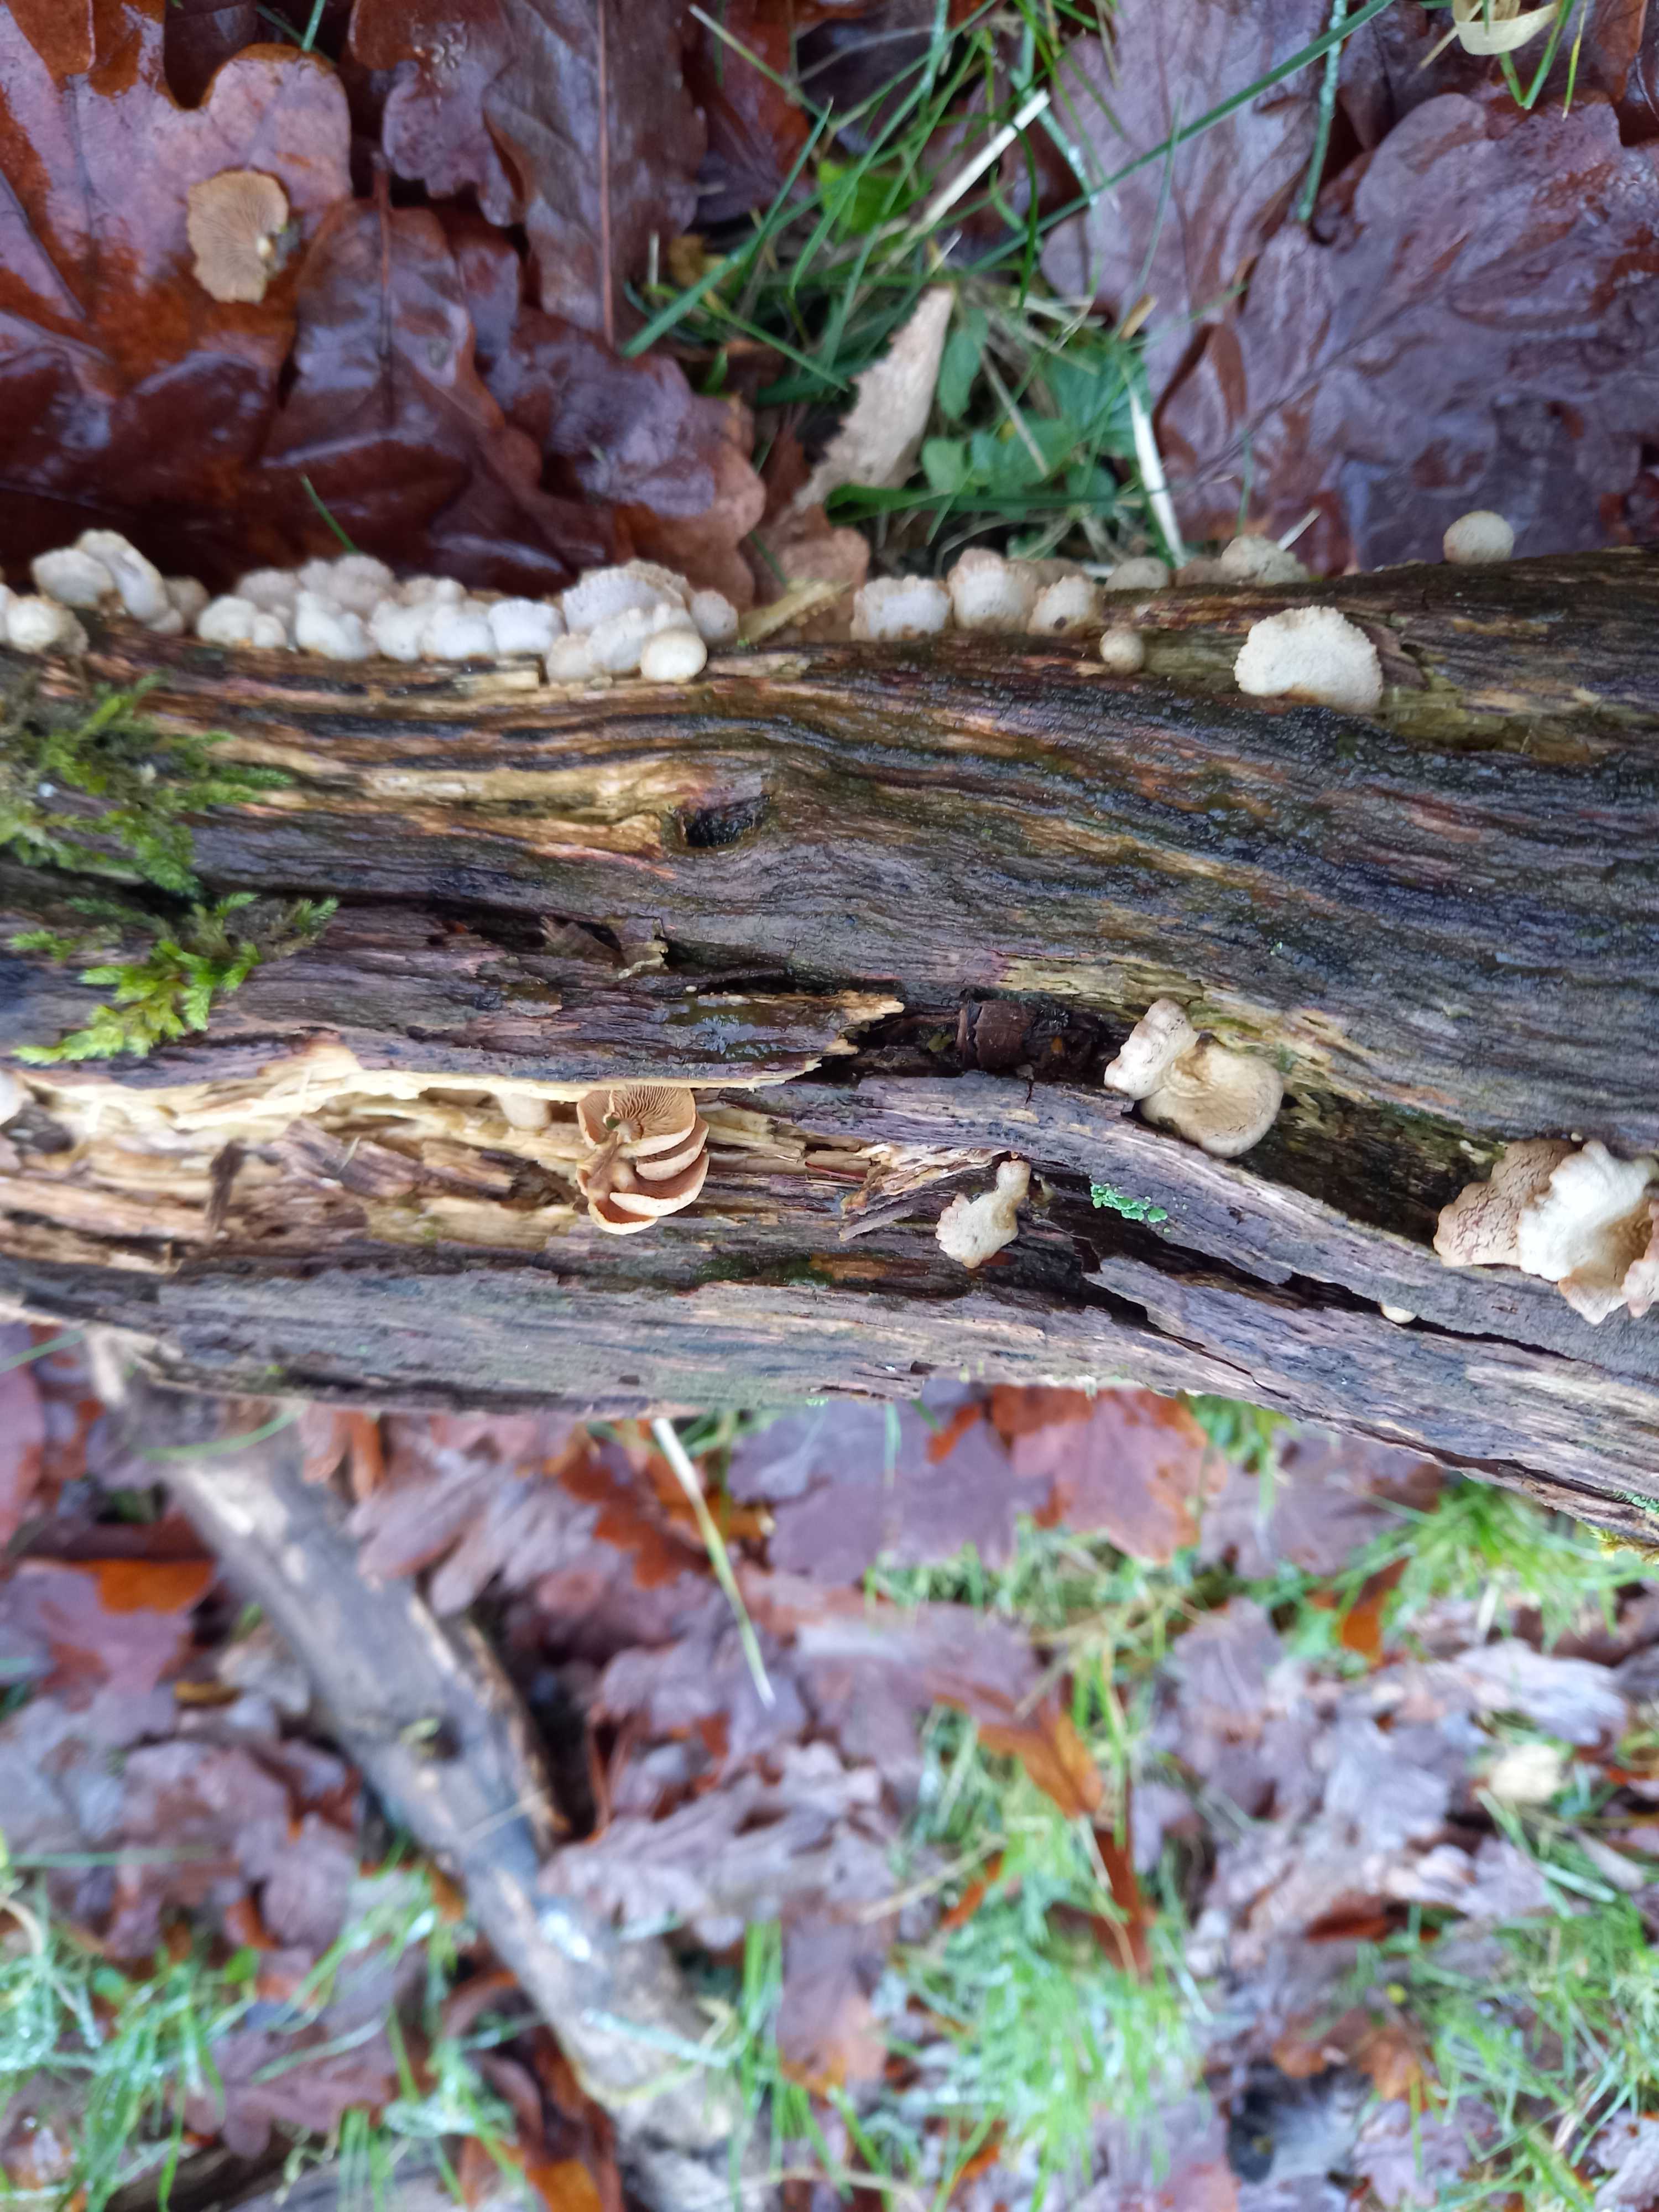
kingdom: Fungi
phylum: Basidiomycota
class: Agaricomycetes
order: Agaricales
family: Mycenaceae
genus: Panellus
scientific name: Panellus stipticus
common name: kliddet epaulethat
